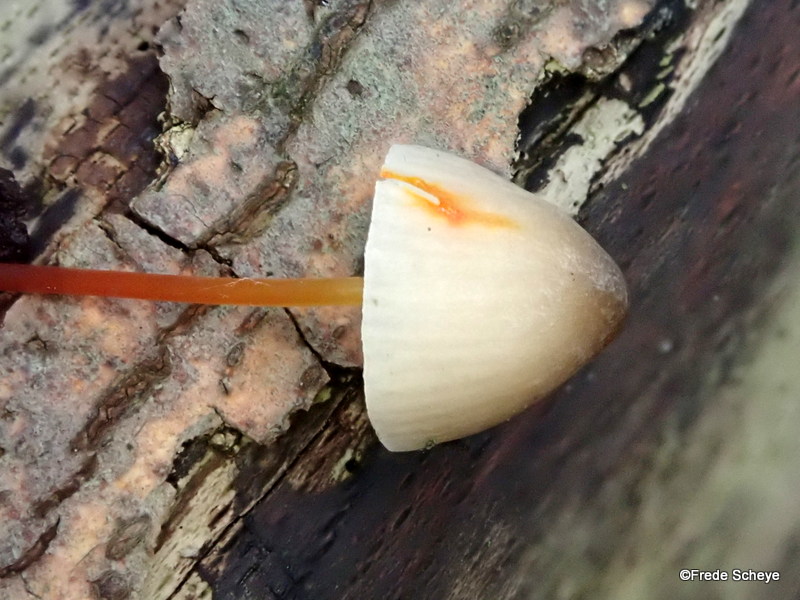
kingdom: Fungi
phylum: Basidiomycota
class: Agaricomycetes
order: Agaricales
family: Mycenaceae
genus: Mycena
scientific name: Mycena crocata
